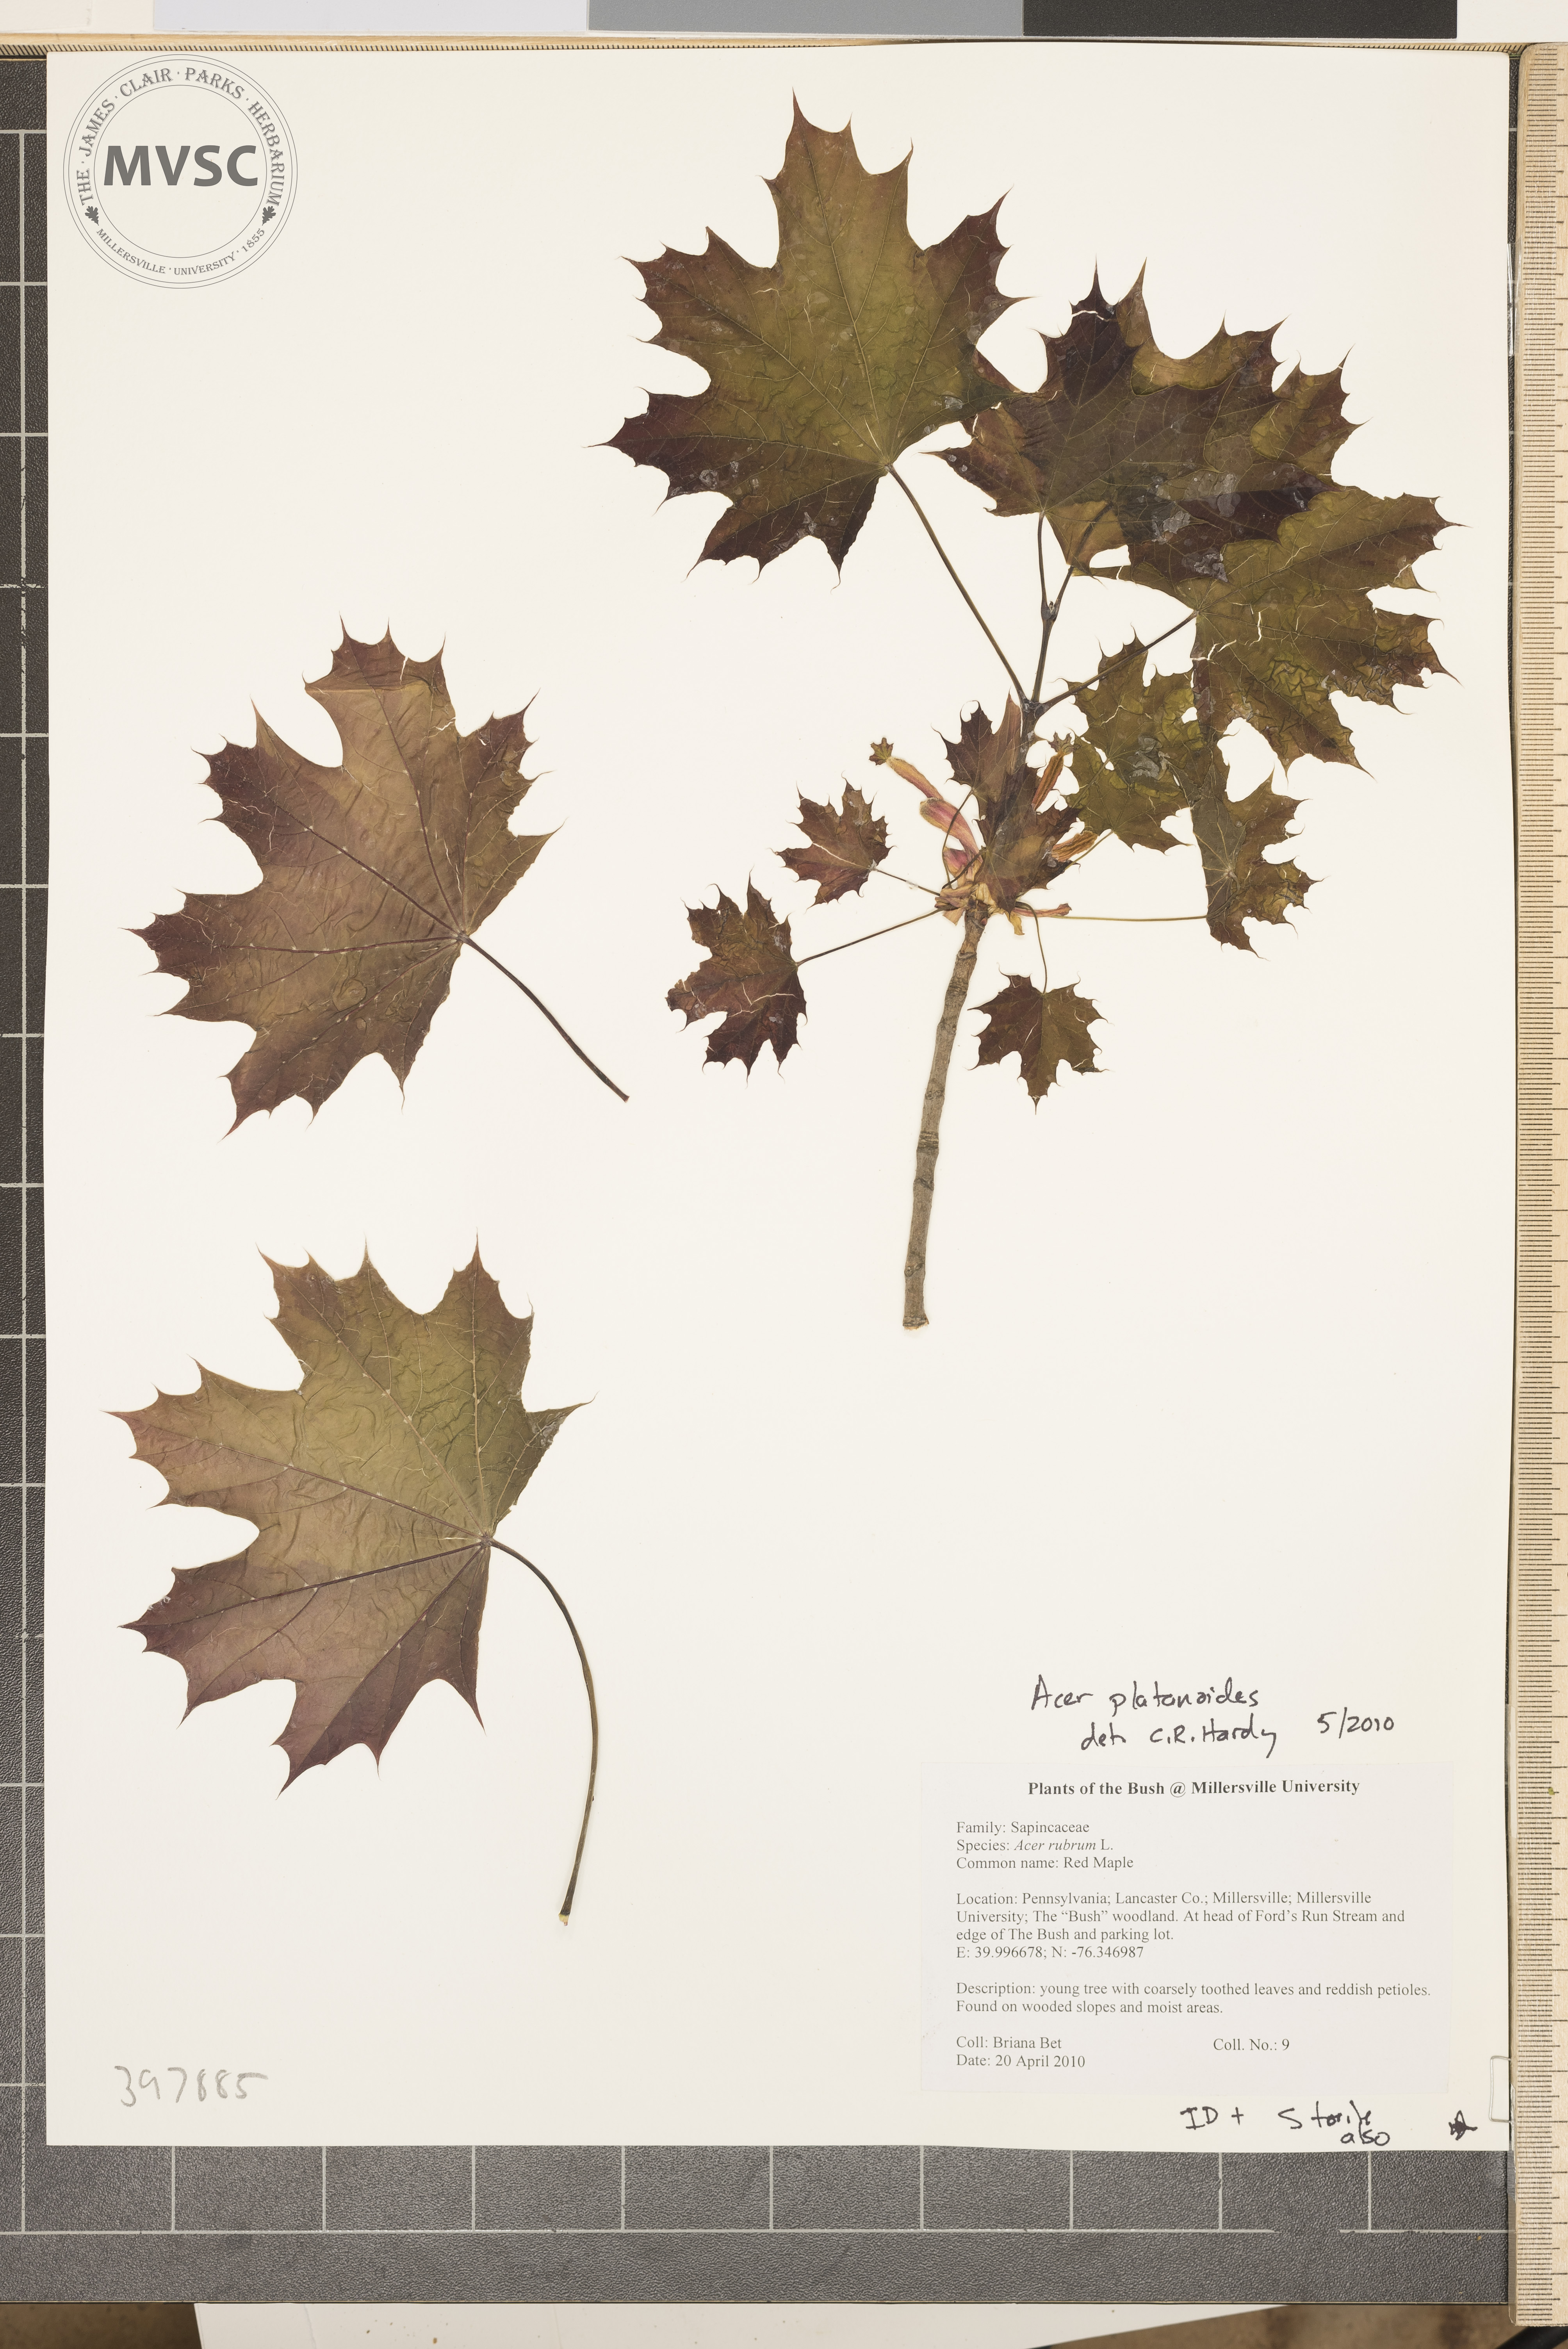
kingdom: Plantae
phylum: Tracheophyta
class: Magnoliopsida
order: Sapindales
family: Sapindaceae
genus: Acer
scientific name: Acer platanoides
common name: Norway maple
